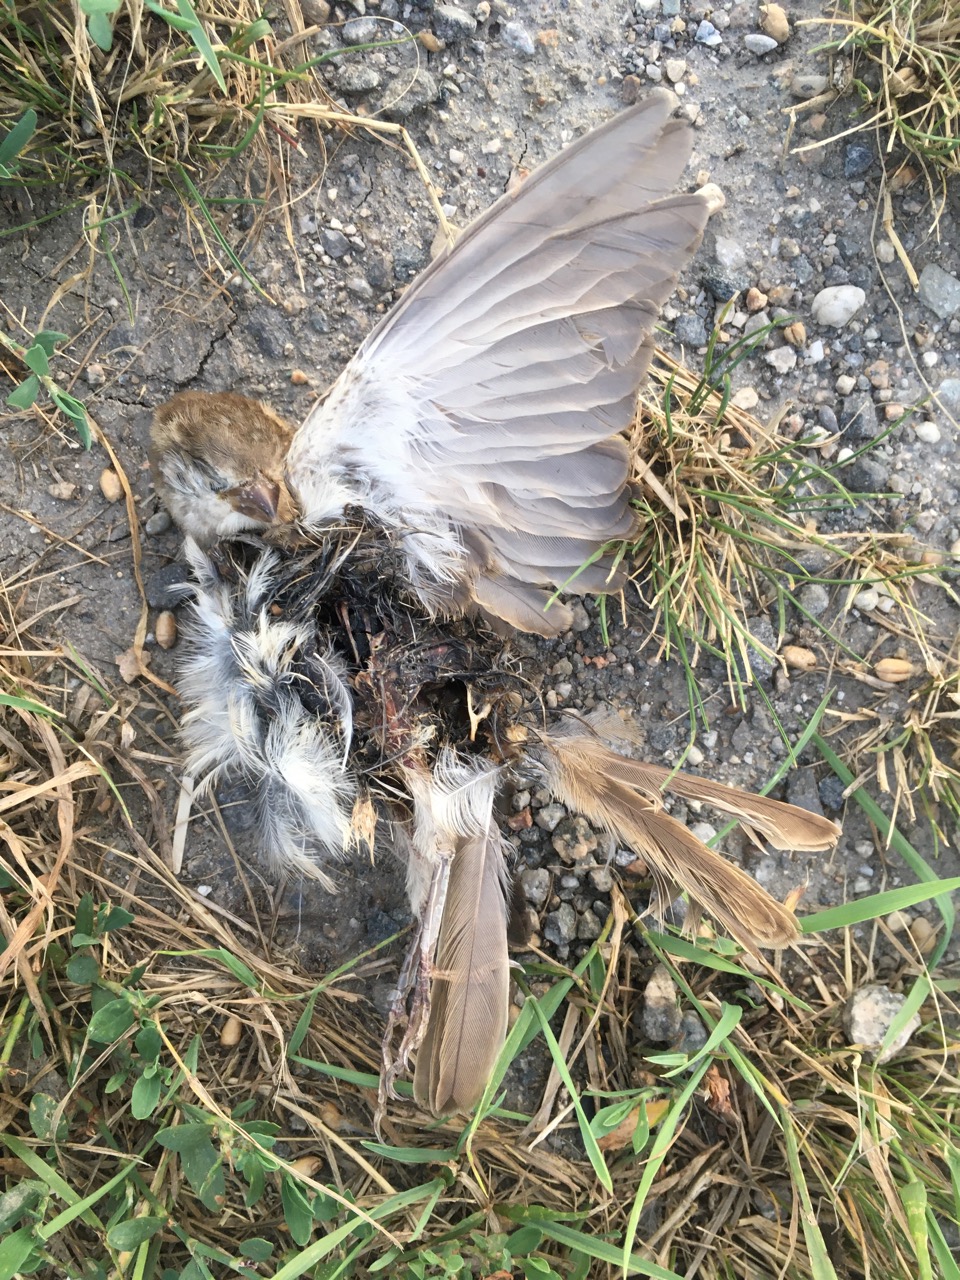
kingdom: Animalia
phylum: Chordata
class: Aves
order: Passeriformes
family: Passeridae
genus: Passer
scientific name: Passer domesticus
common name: House sparrow
